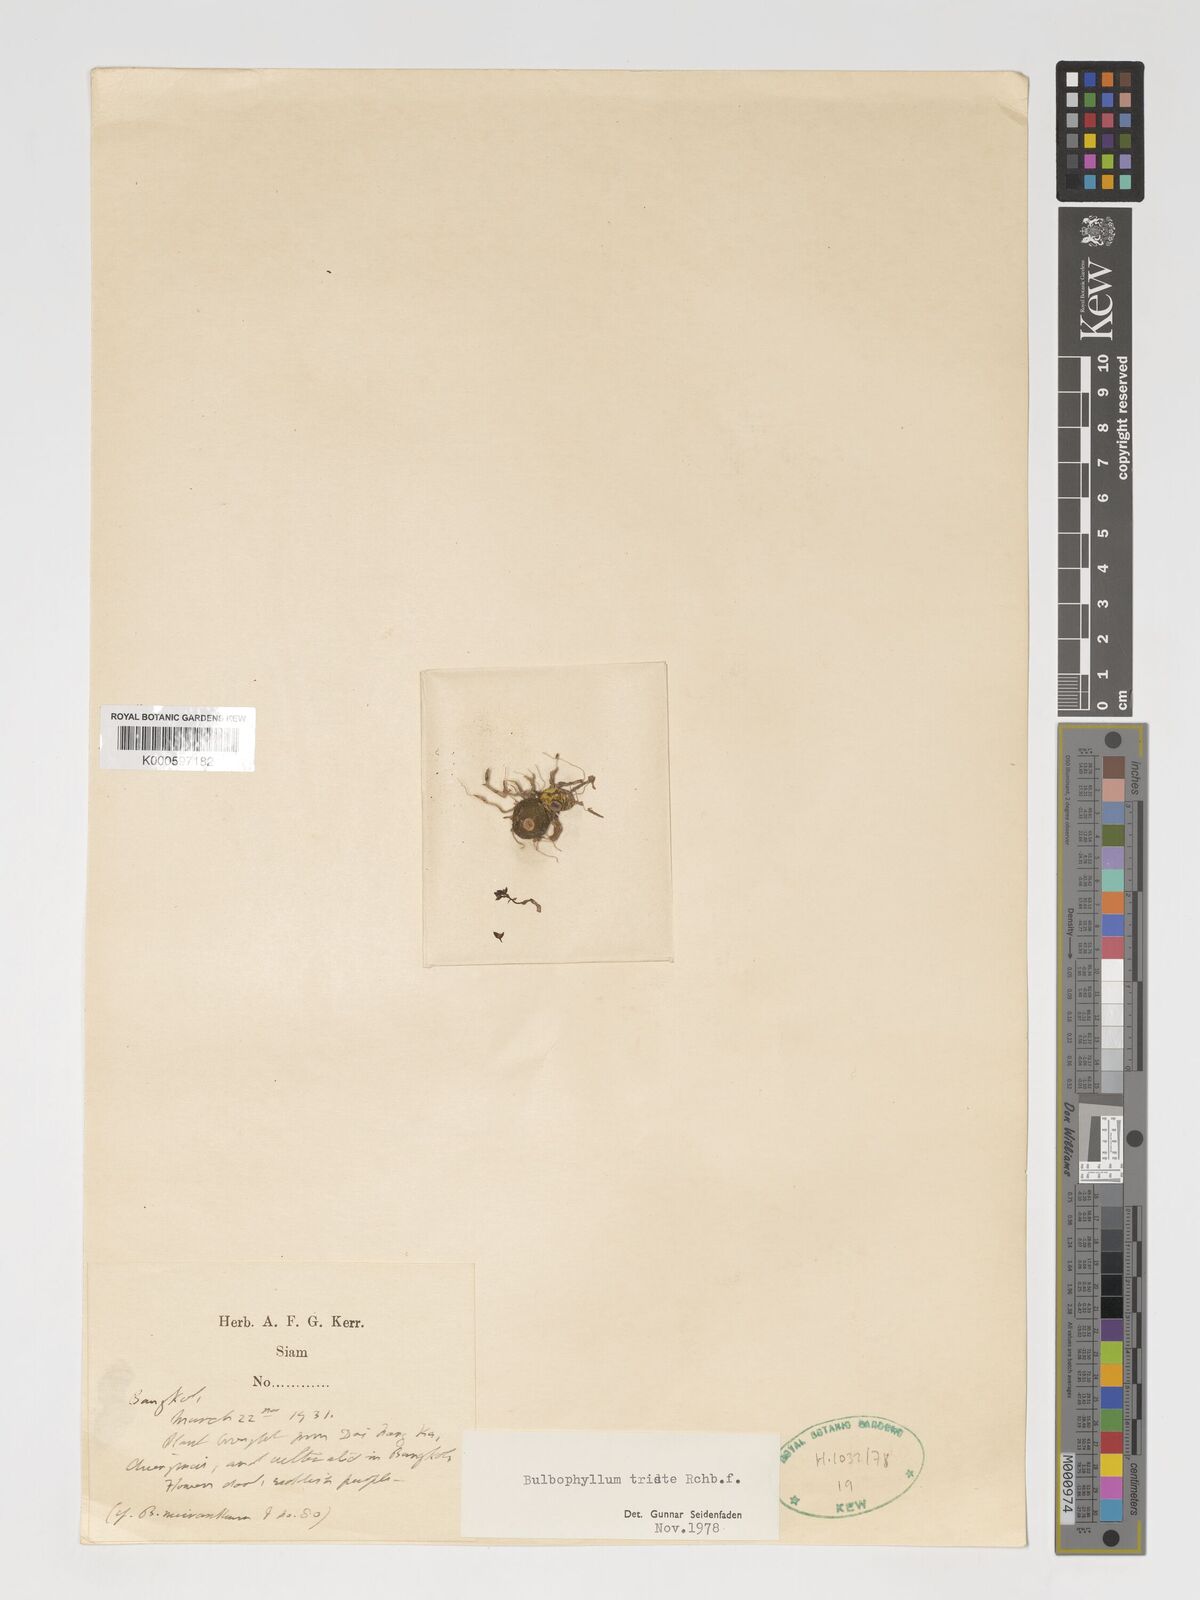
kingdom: Plantae
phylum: Tracheophyta
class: Liliopsida
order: Asparagales
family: Orchidaceae
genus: Bulbophyllum
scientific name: Bulbophyllum triste
